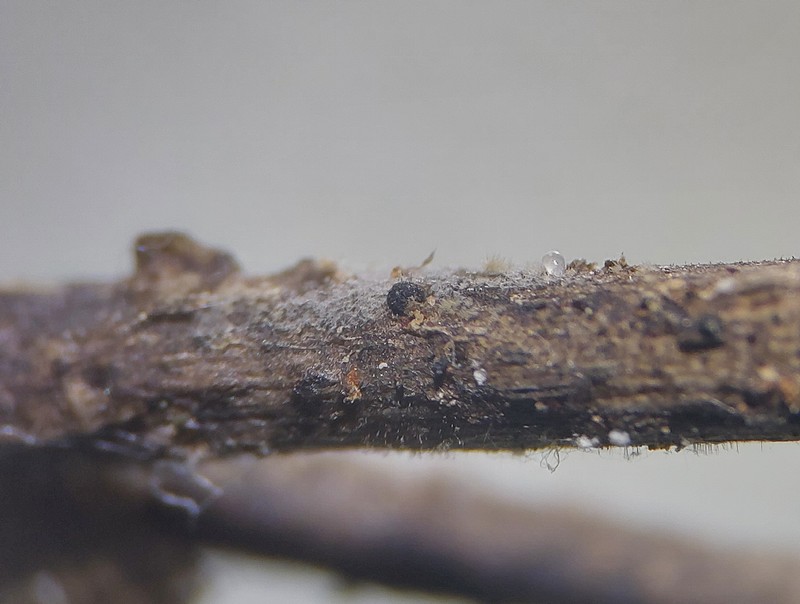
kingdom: Fungi
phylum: Ascomycota
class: Dothideomycetes
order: Botryosphaeriales
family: Botryosphaeriaceae
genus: Sphaeropsis
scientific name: Sphaeropsis sapinea
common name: Sphaeropsis blight
